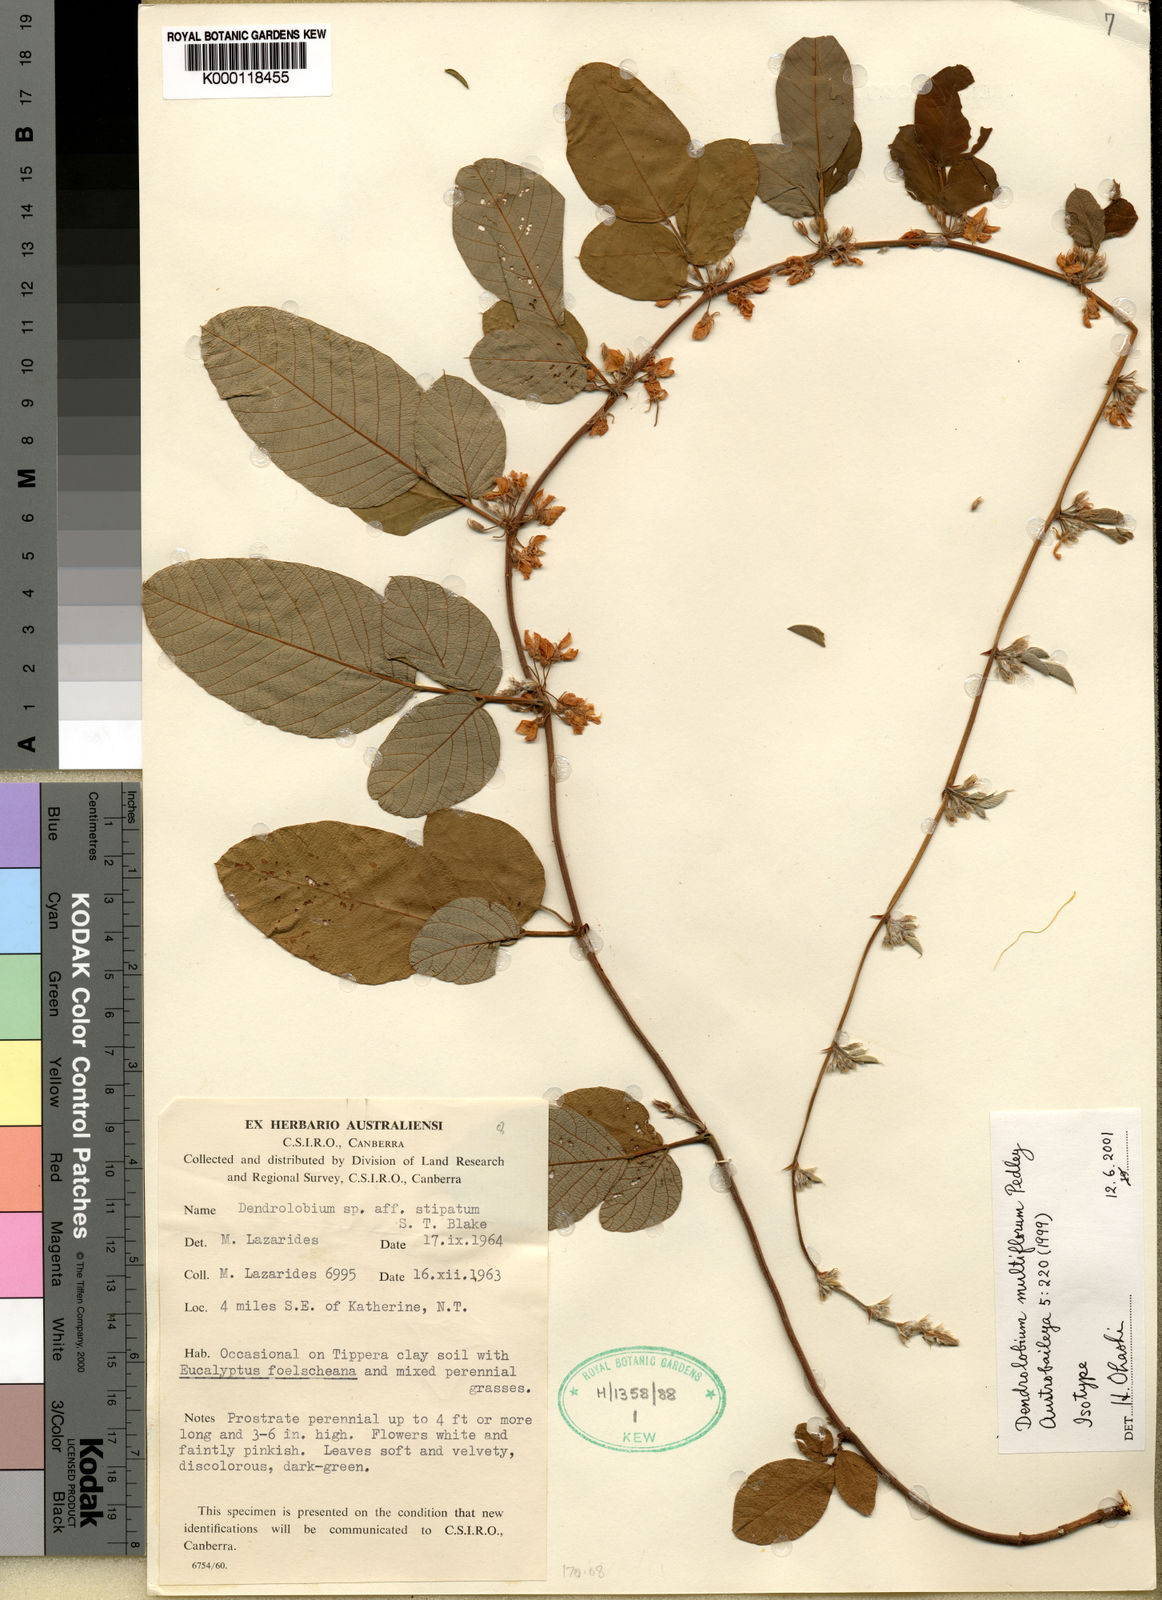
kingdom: Plantae
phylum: Tracheophyta
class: Magnoliopsida
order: Fabales
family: Fabaceae
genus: Dendrolobium
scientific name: Dendrolobium multiflorum
